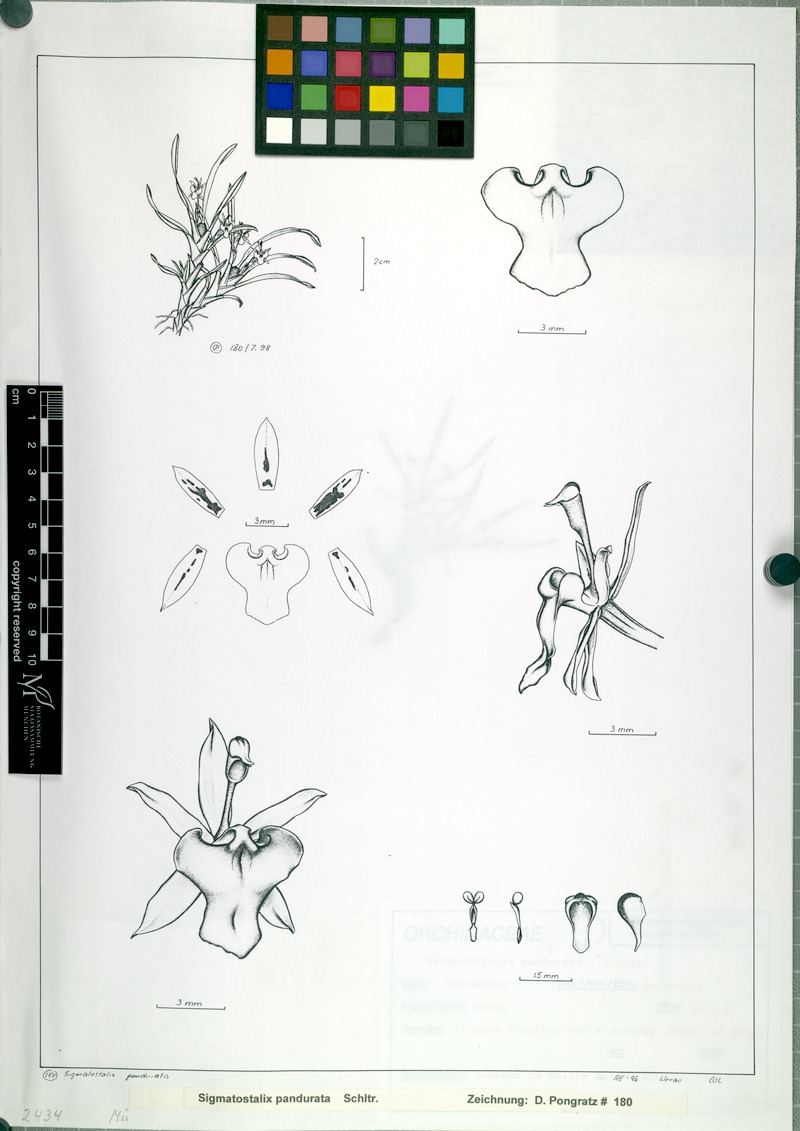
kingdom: Plantae
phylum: Tracheophyta
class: Liliopsida
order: Asparagales
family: Orchidaceae
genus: Oncidium
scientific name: Oncidium panduratoides
